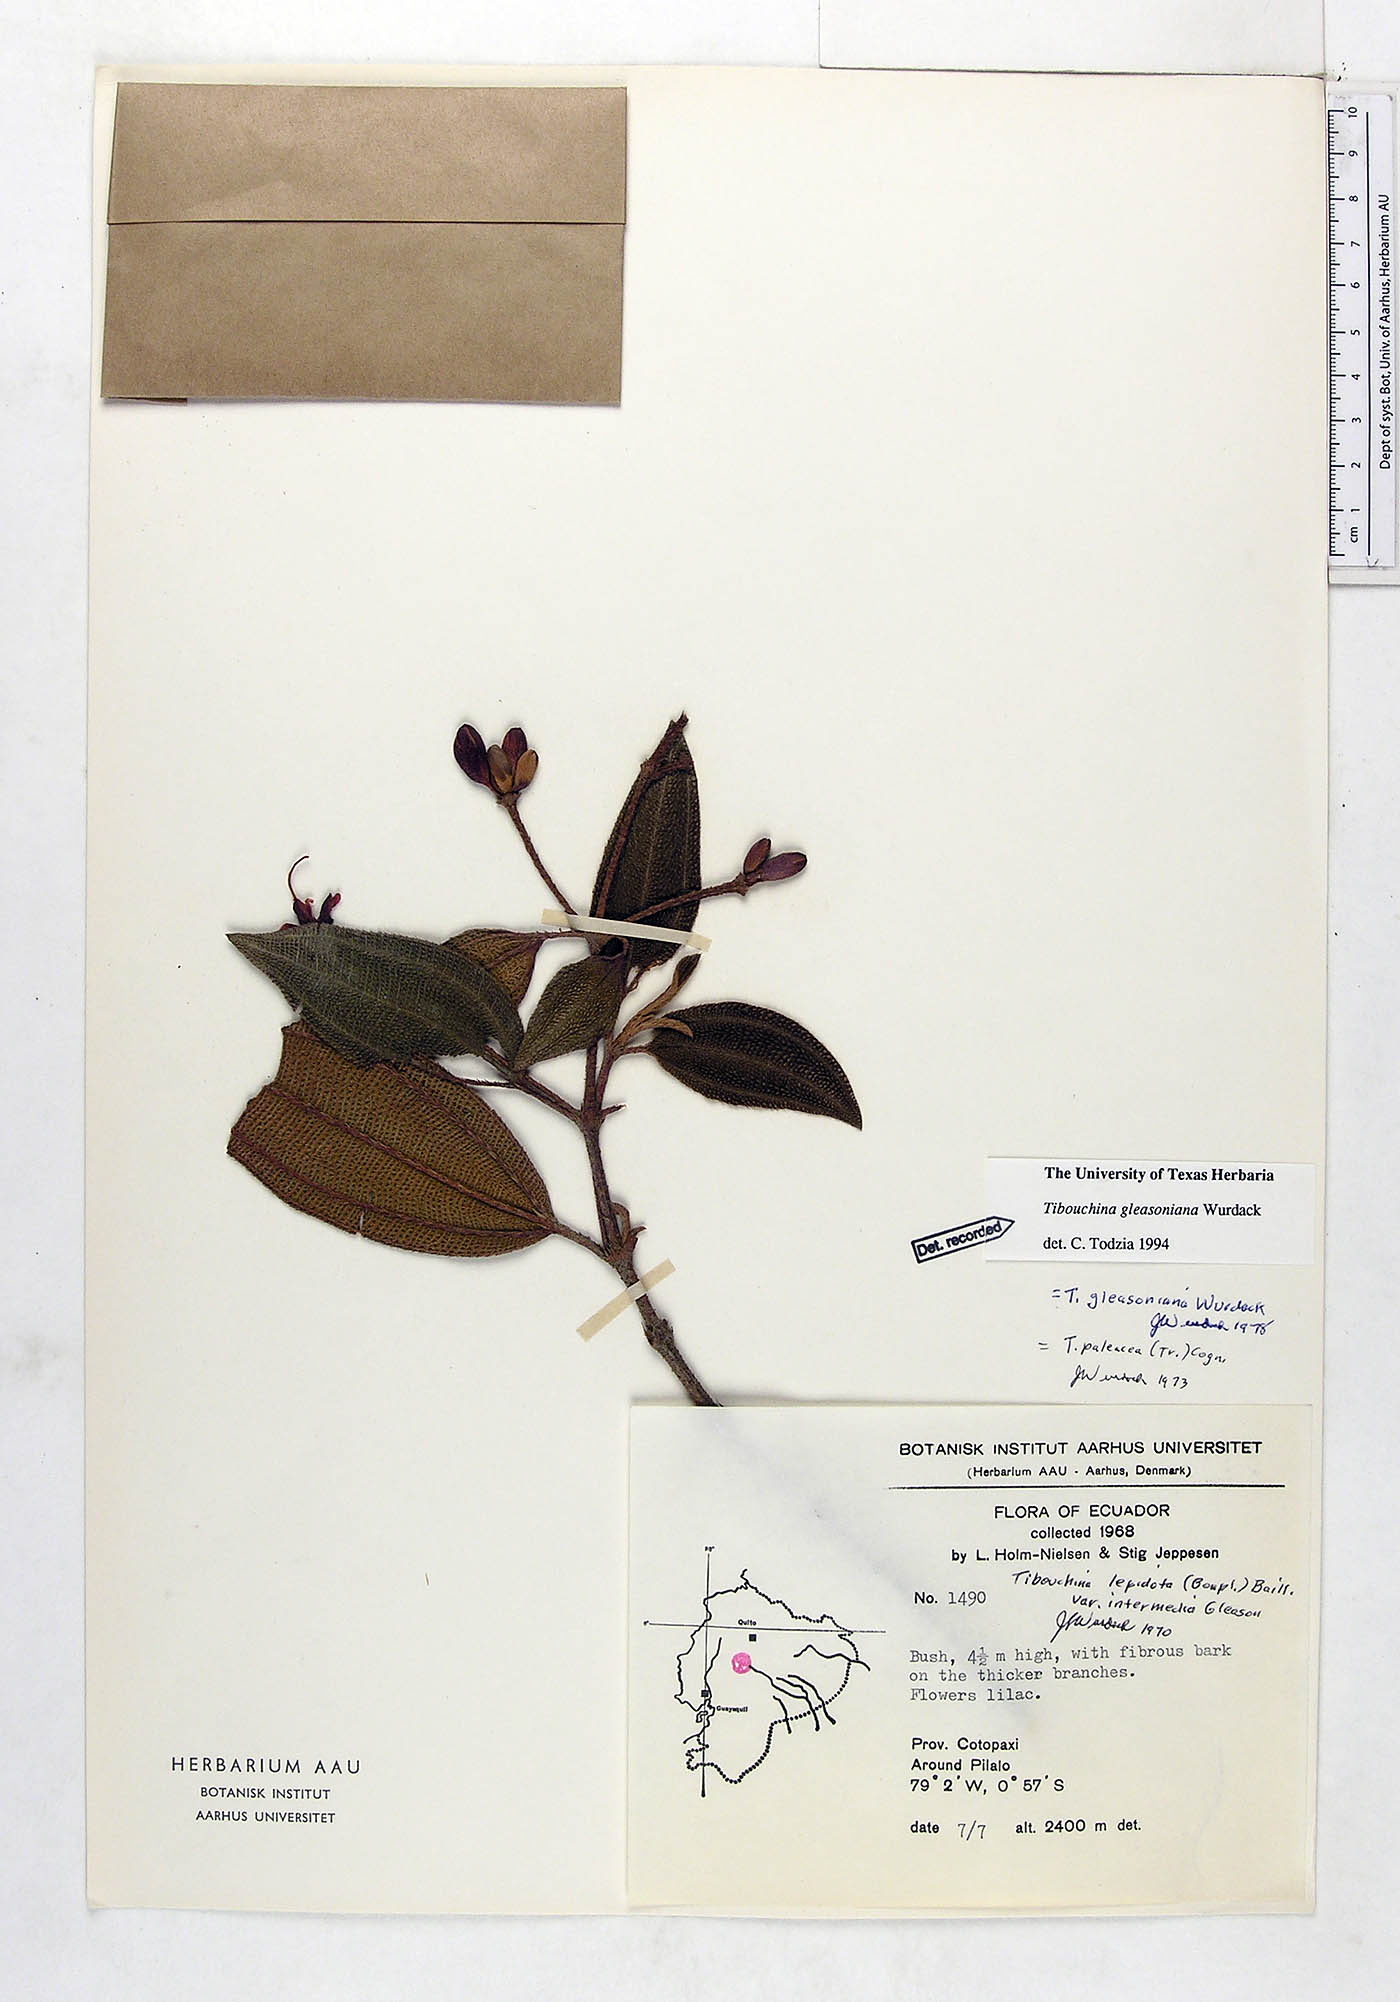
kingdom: Plantae
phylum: Tracheophyta
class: Magnoliopsida
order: Myrtales
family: Melastomataceae
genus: Andesanthus
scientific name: Andesanthus gleasonianus
